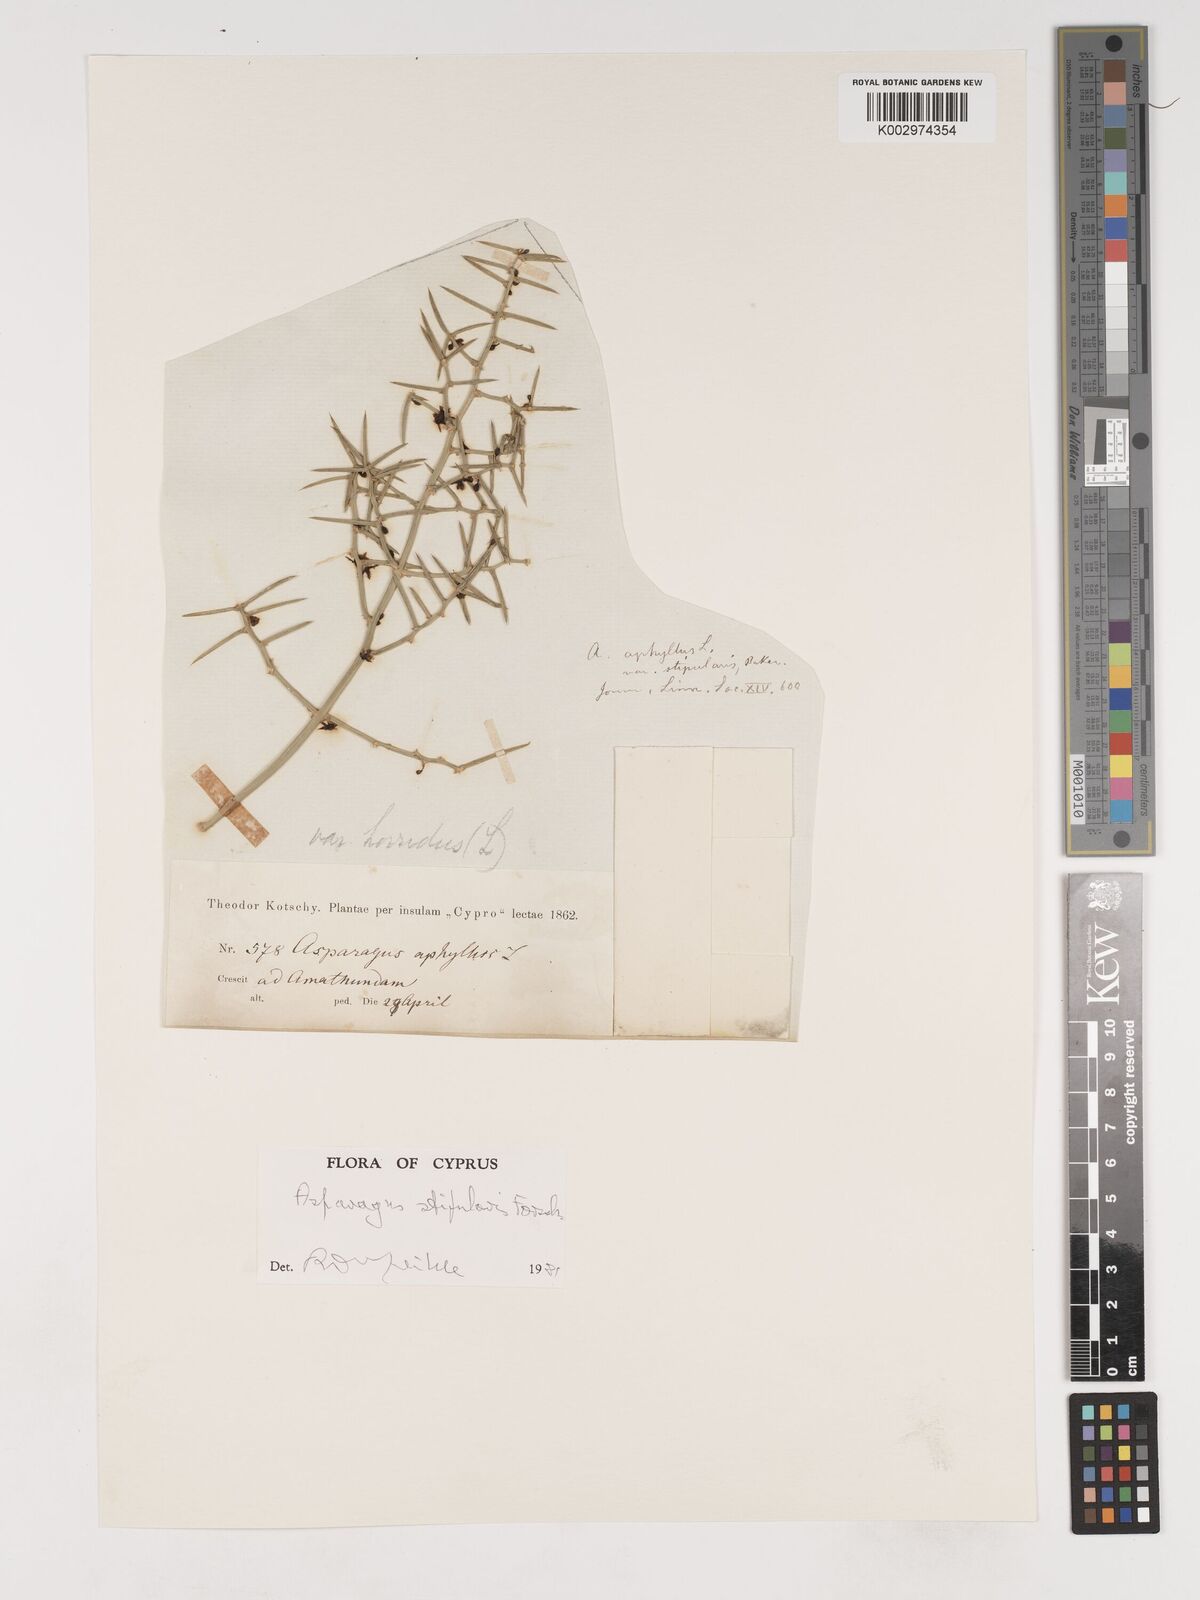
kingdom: Plantae
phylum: Tracheophyta
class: Liliopsida
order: Asparagales
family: Asparagaceae
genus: Asparagus
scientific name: Asparagus aphyllus
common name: Mediterranean asparagus
